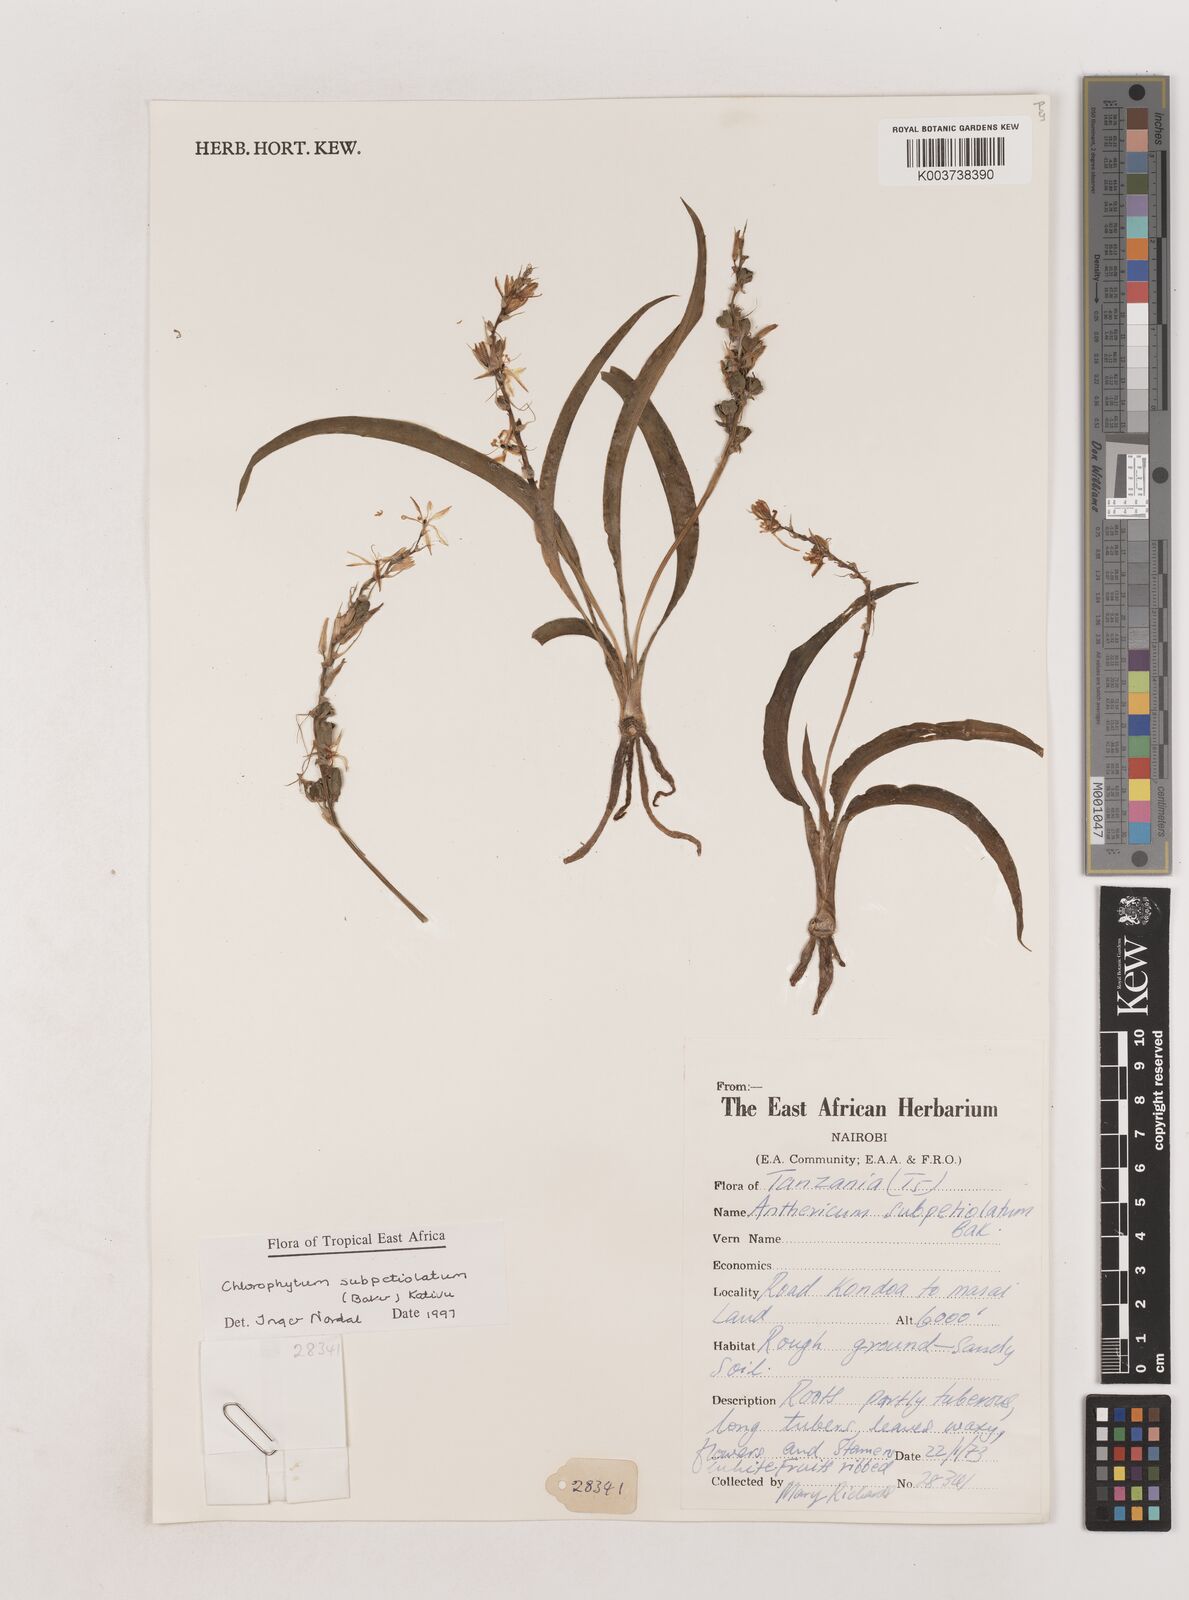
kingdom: Plantae
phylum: Tracheophyta
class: Liliopsida
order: Asparagales
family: Asparagaceae
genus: Chlorophytum
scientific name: Chlorophytum subpetiolatum
